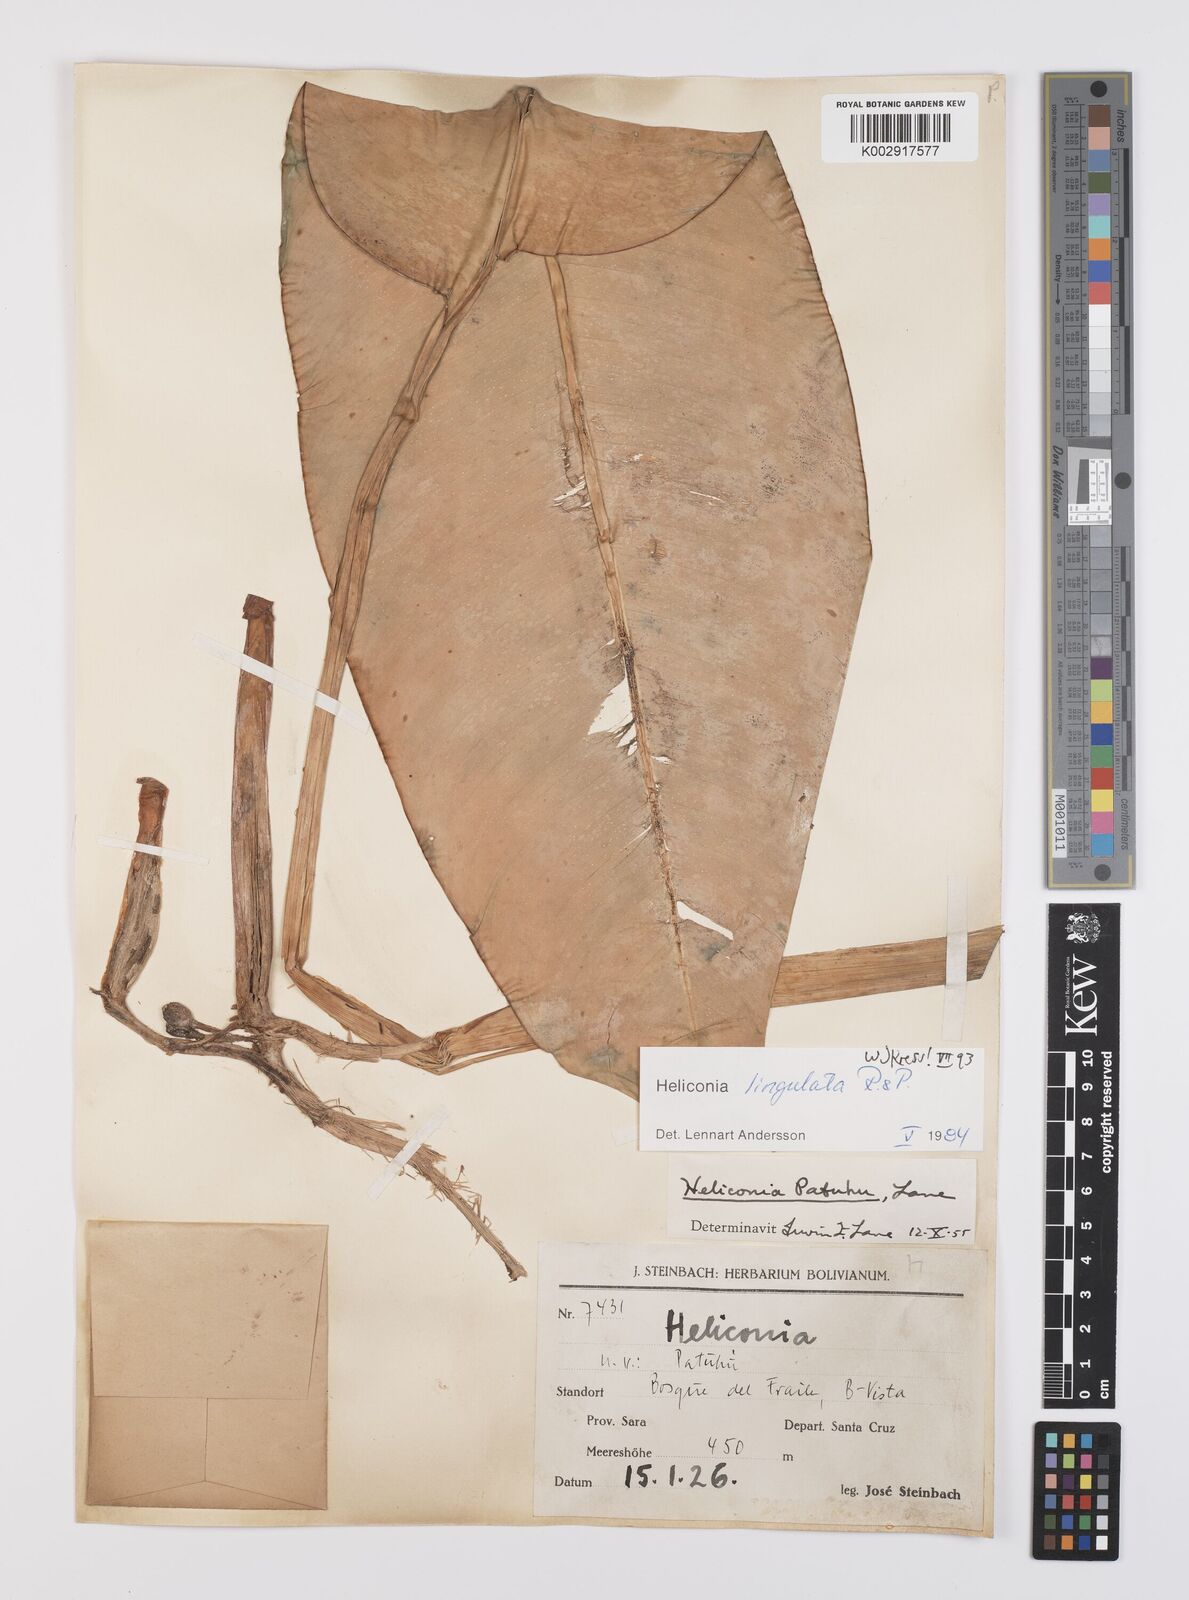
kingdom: Plantae
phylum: Tracheophyta
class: Liliopsida
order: Zingiberales
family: Heliconiaceae
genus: Heliconia
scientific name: Heliconia lingulata
